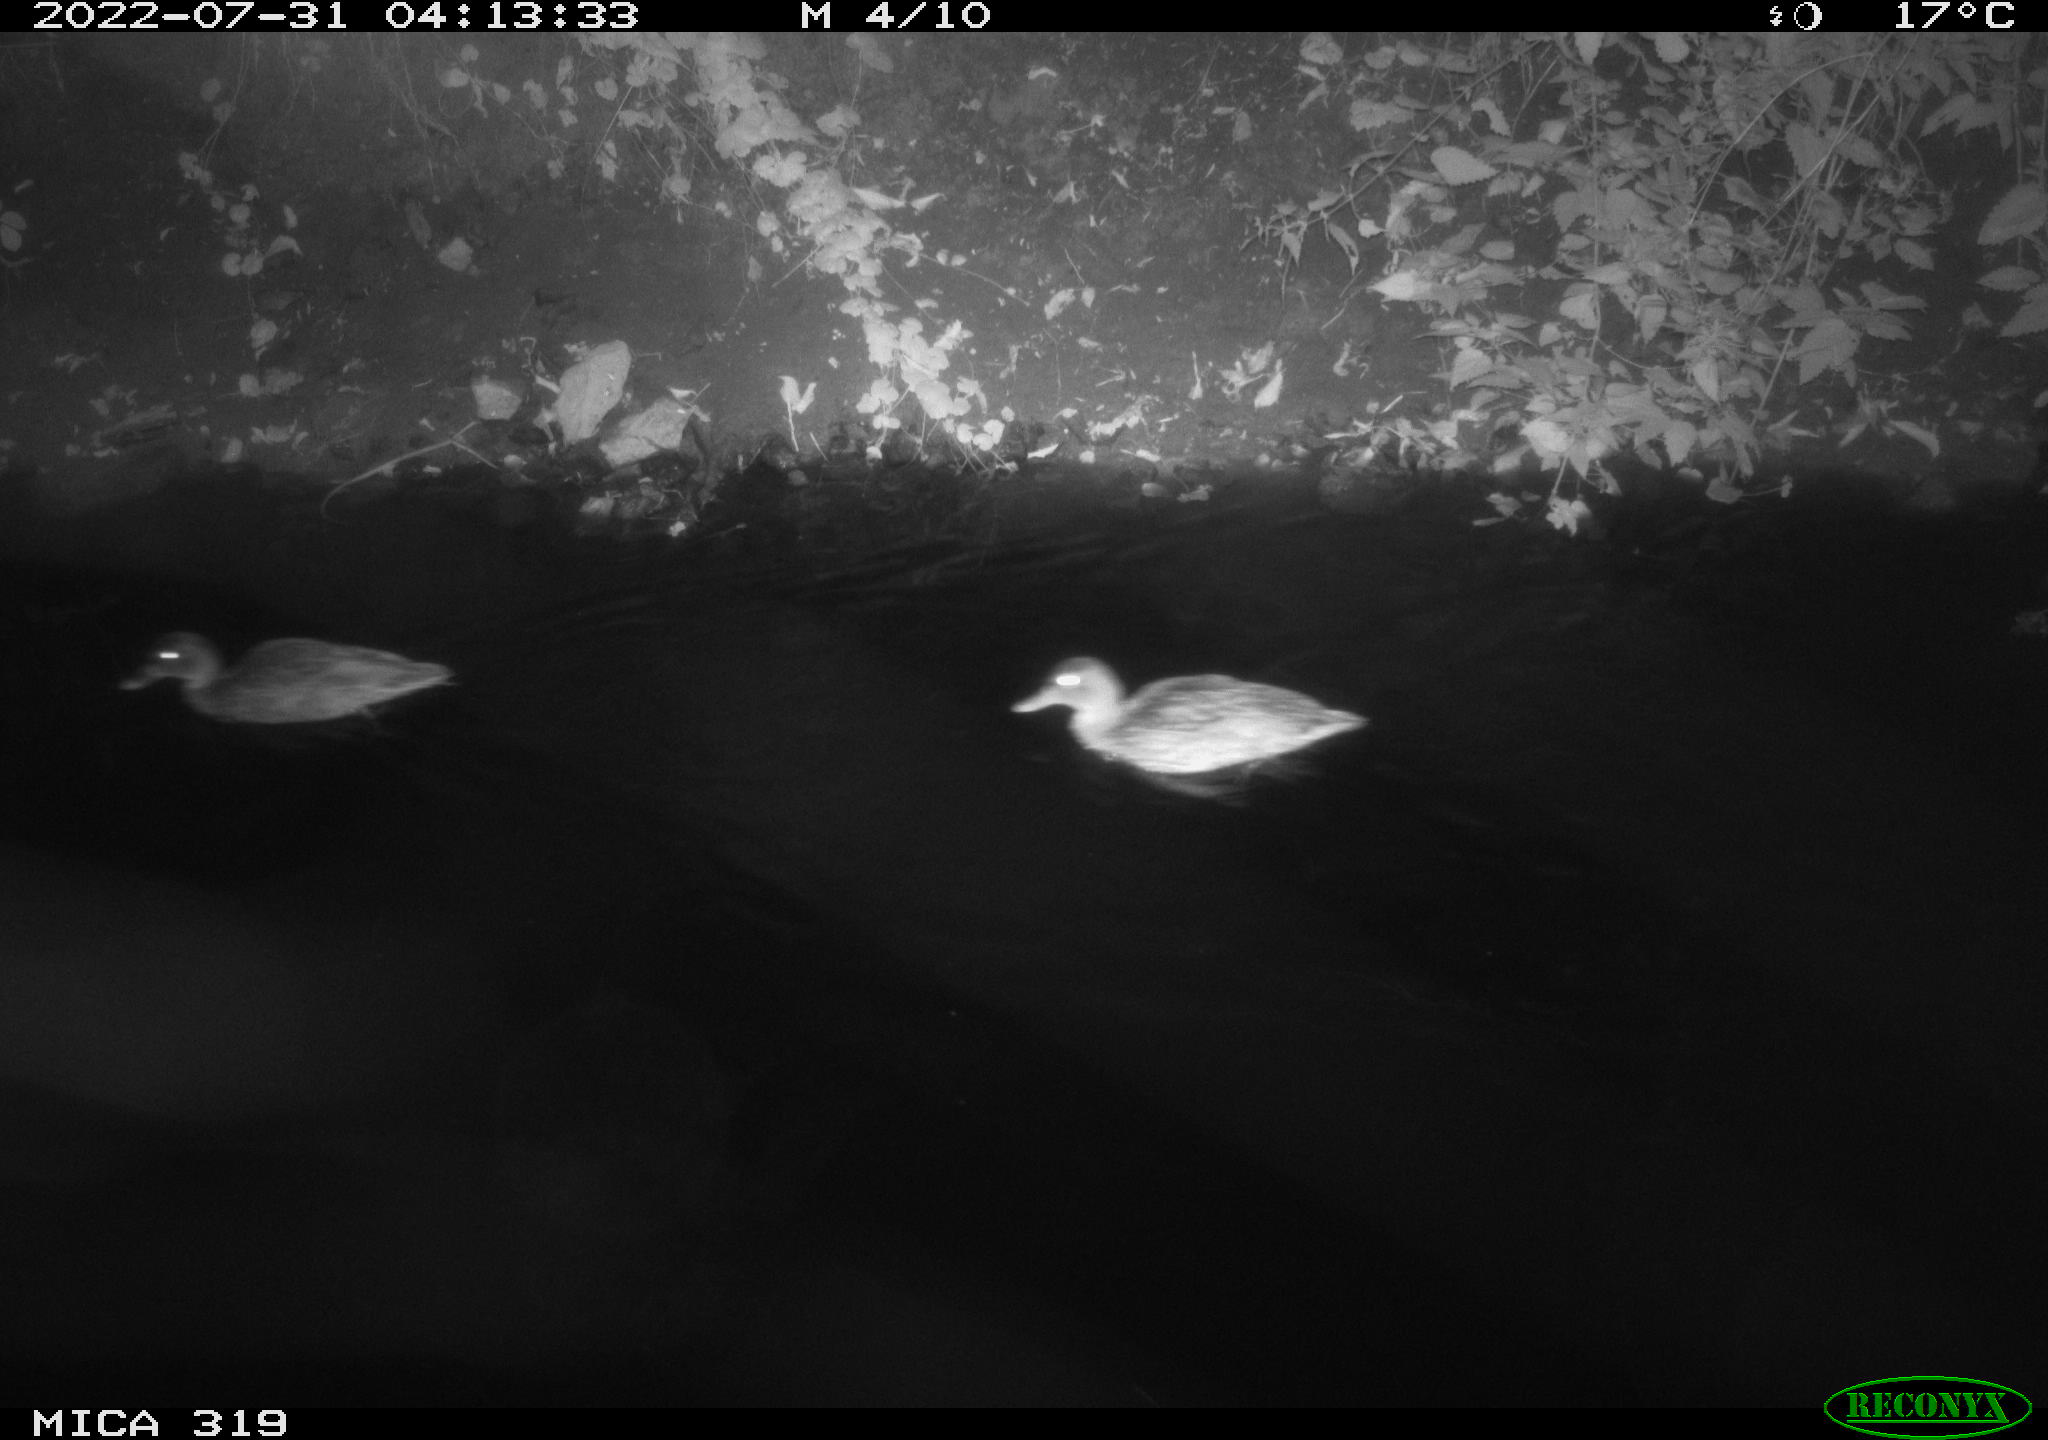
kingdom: Animalia
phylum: Chordata
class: Aves
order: Anseriformes
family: Anatidae
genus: Anas
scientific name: Anas
